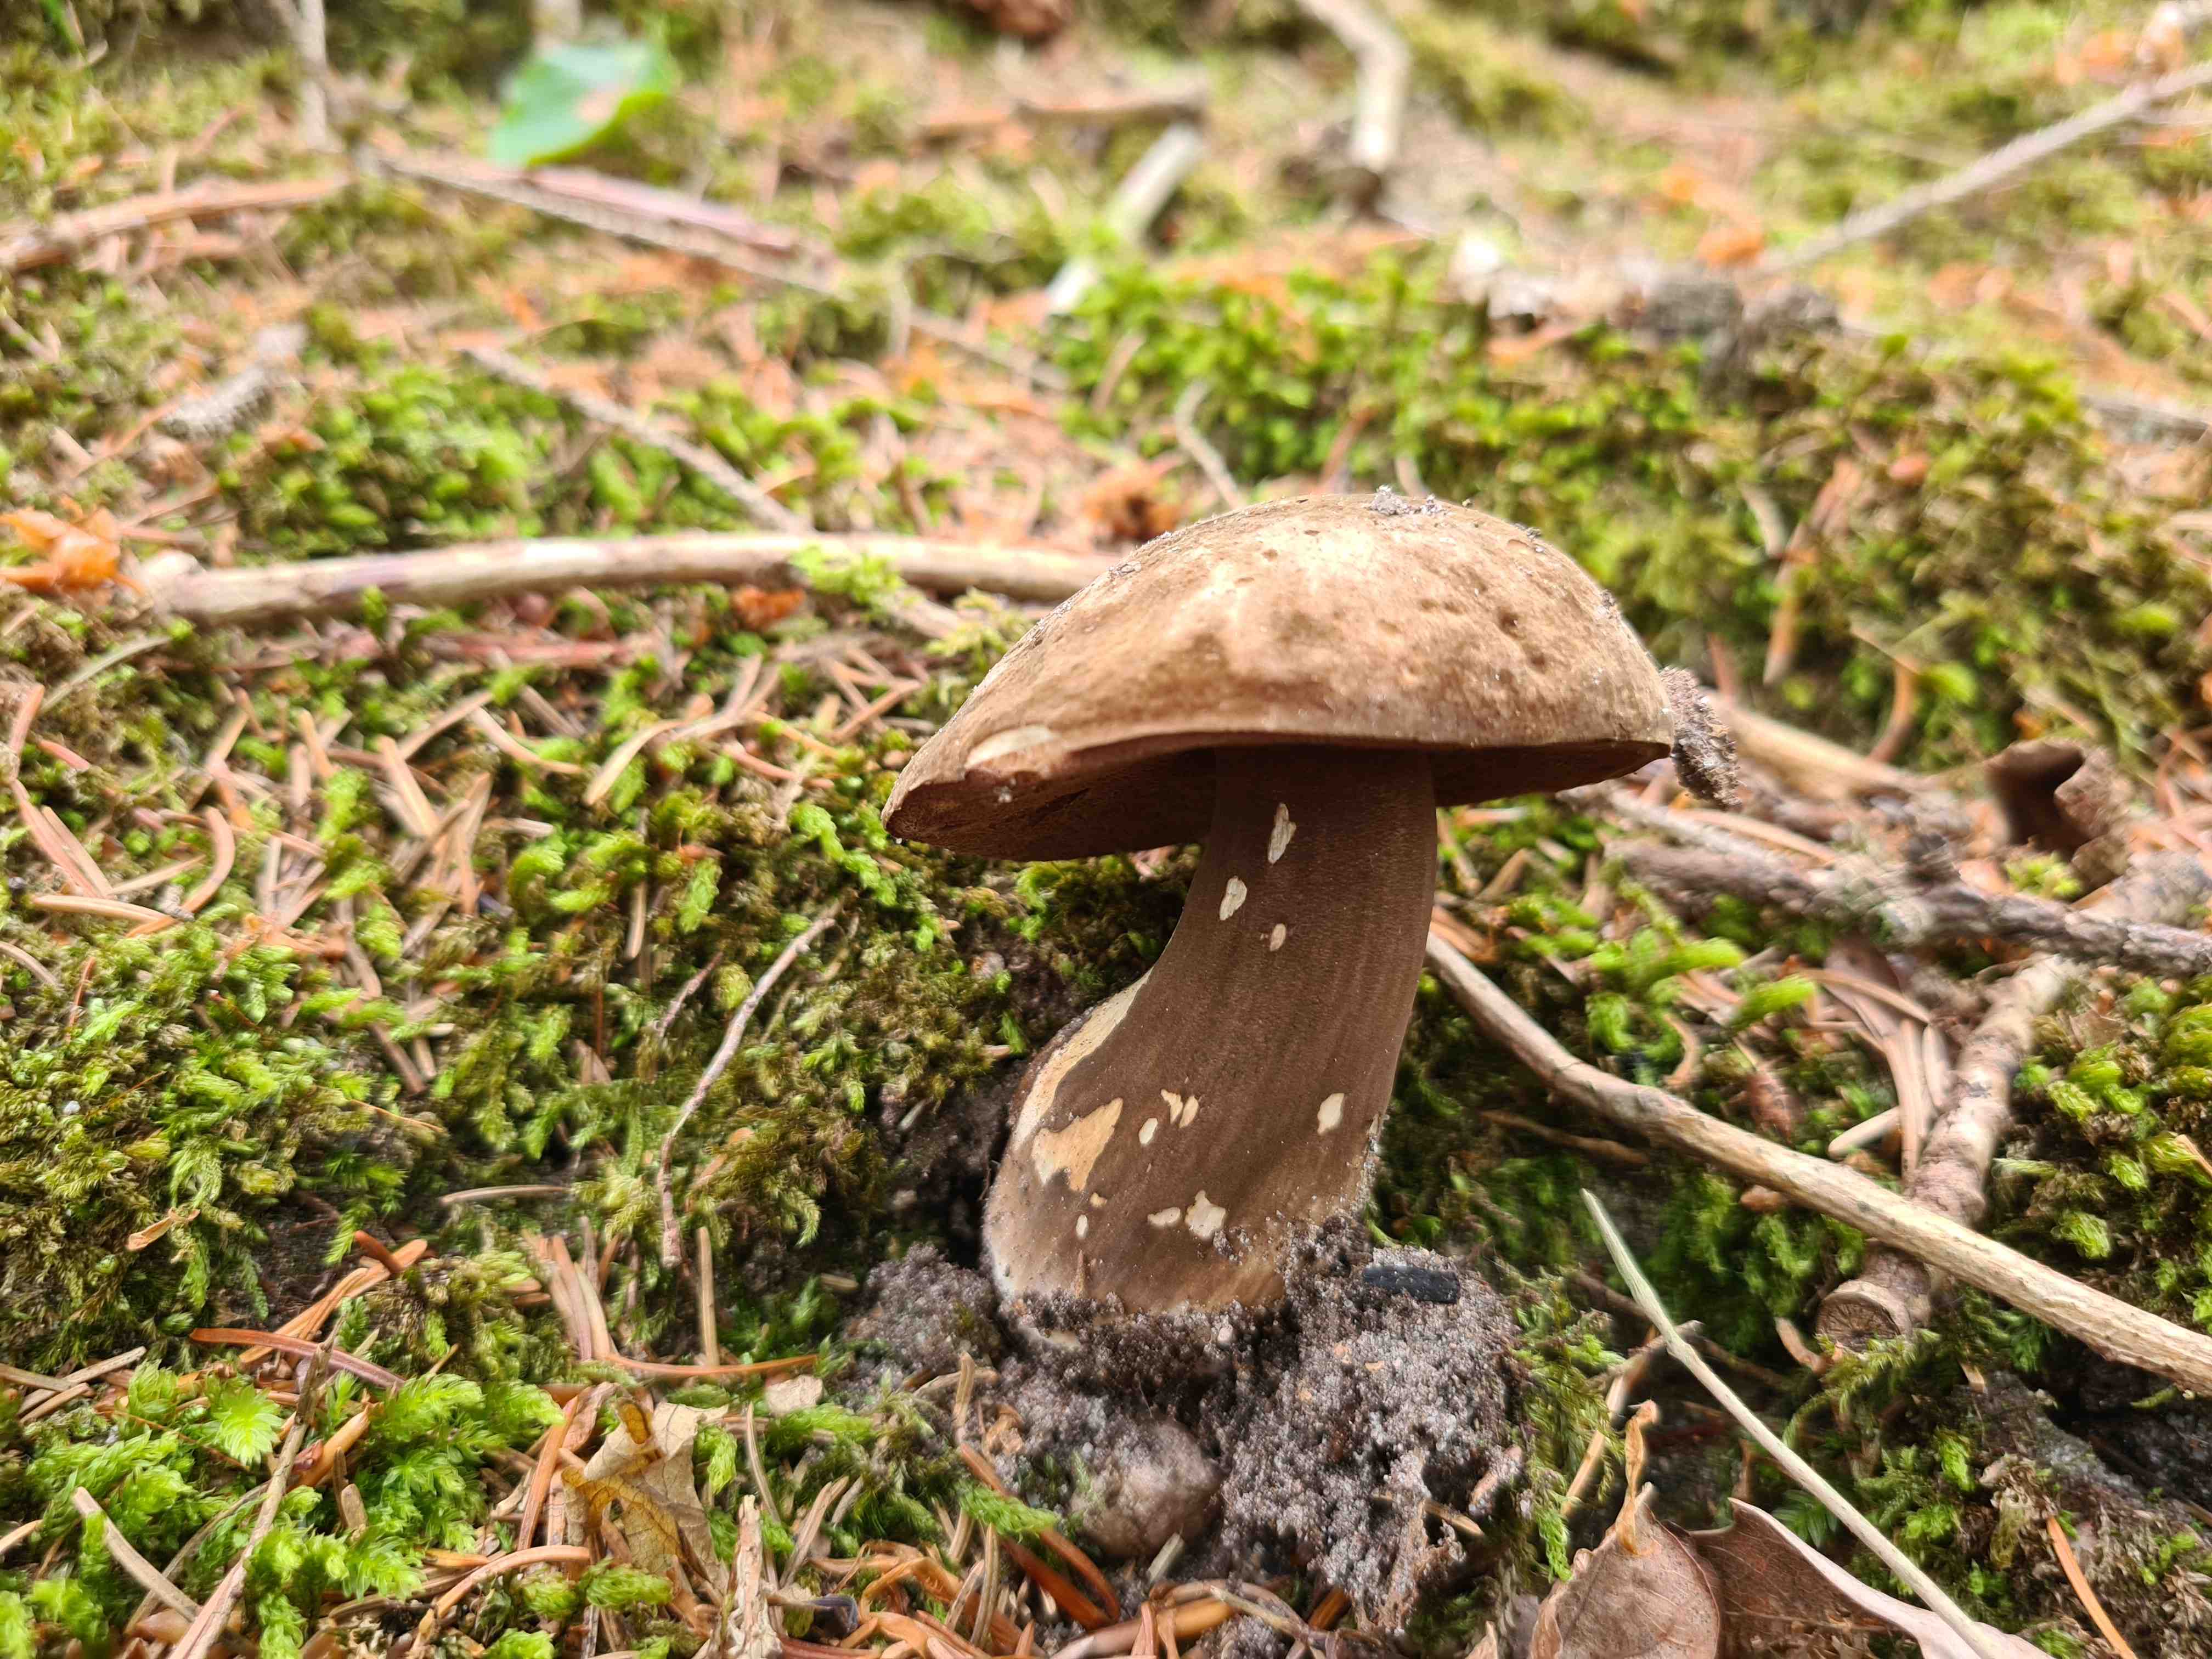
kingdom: Fungi
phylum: Basidiomycota
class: Agaricomycetes
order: Boletales
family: Boletaceae
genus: Porphyrellus
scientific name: Porphyrellus porphyrosporus
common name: sodrørhat
